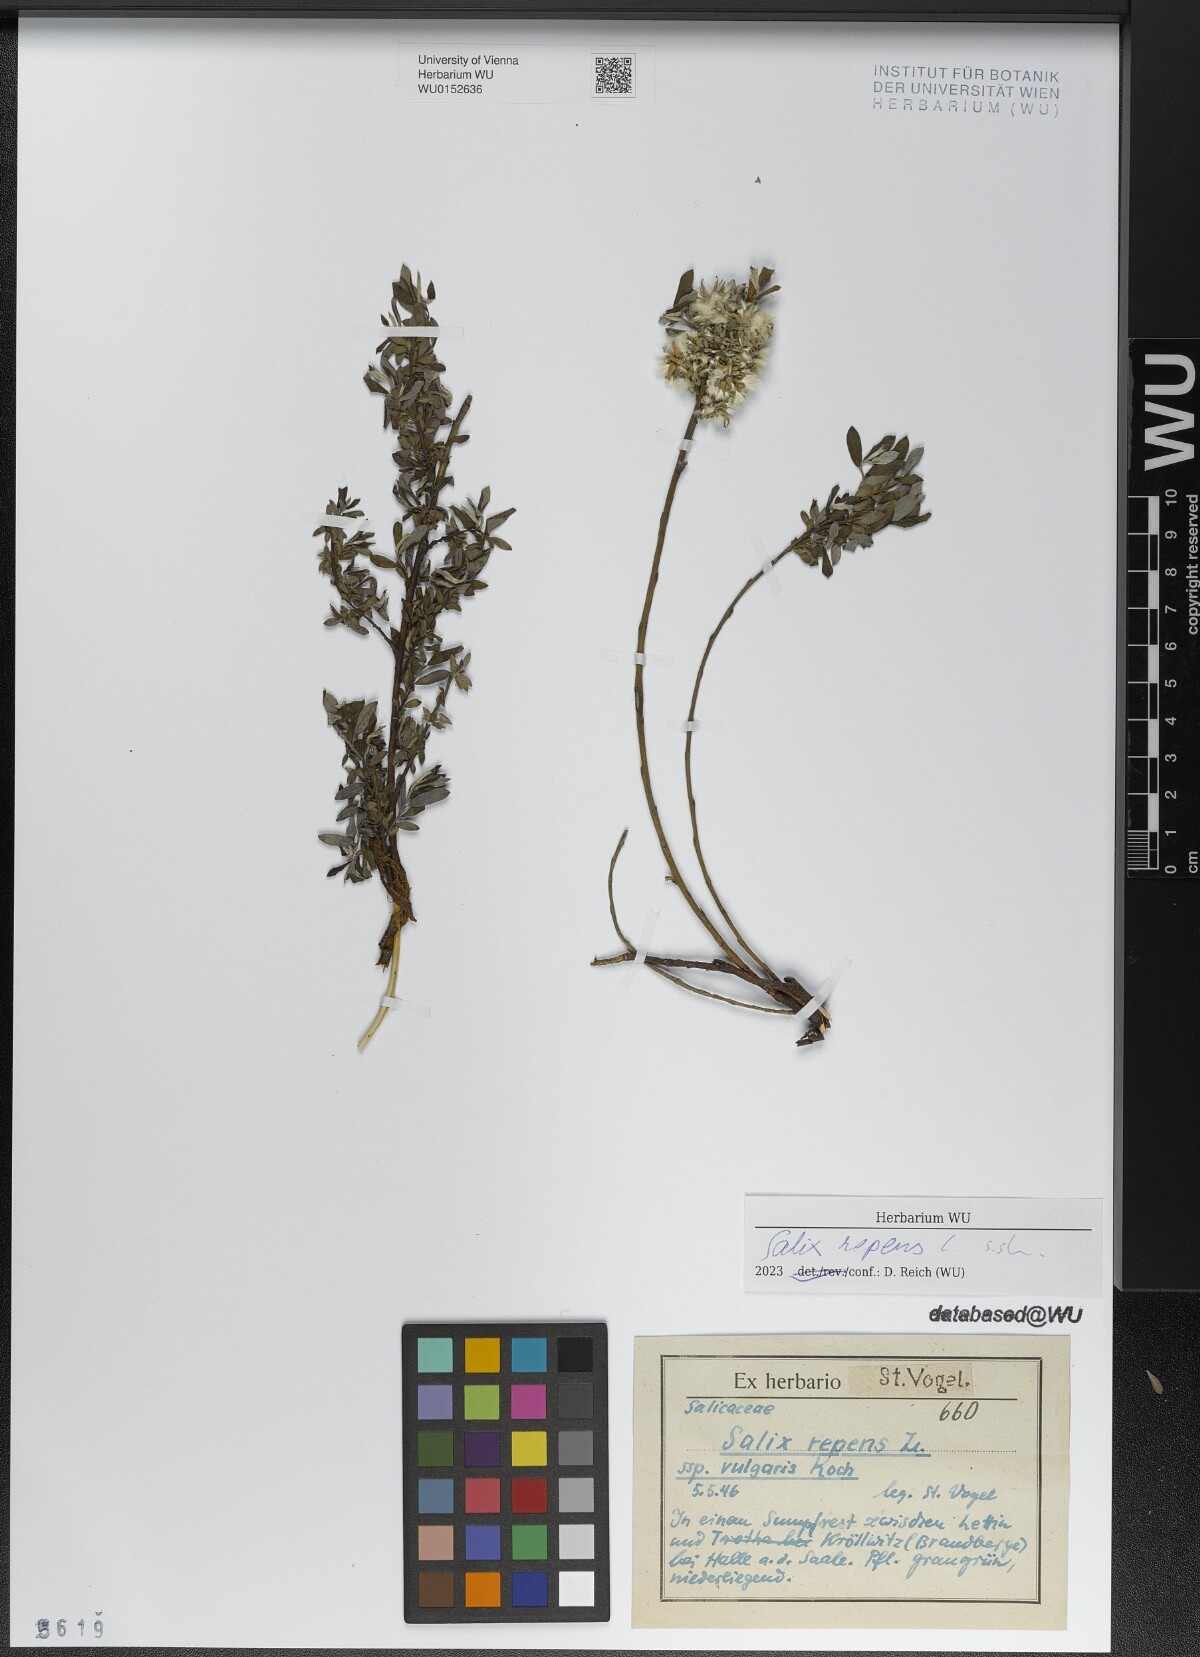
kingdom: Plantae
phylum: Tracheophyta
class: Magnoliopsida
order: Malpighiales
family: Salicaceae
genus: Salix
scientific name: Salix repens
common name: Creeping willow
